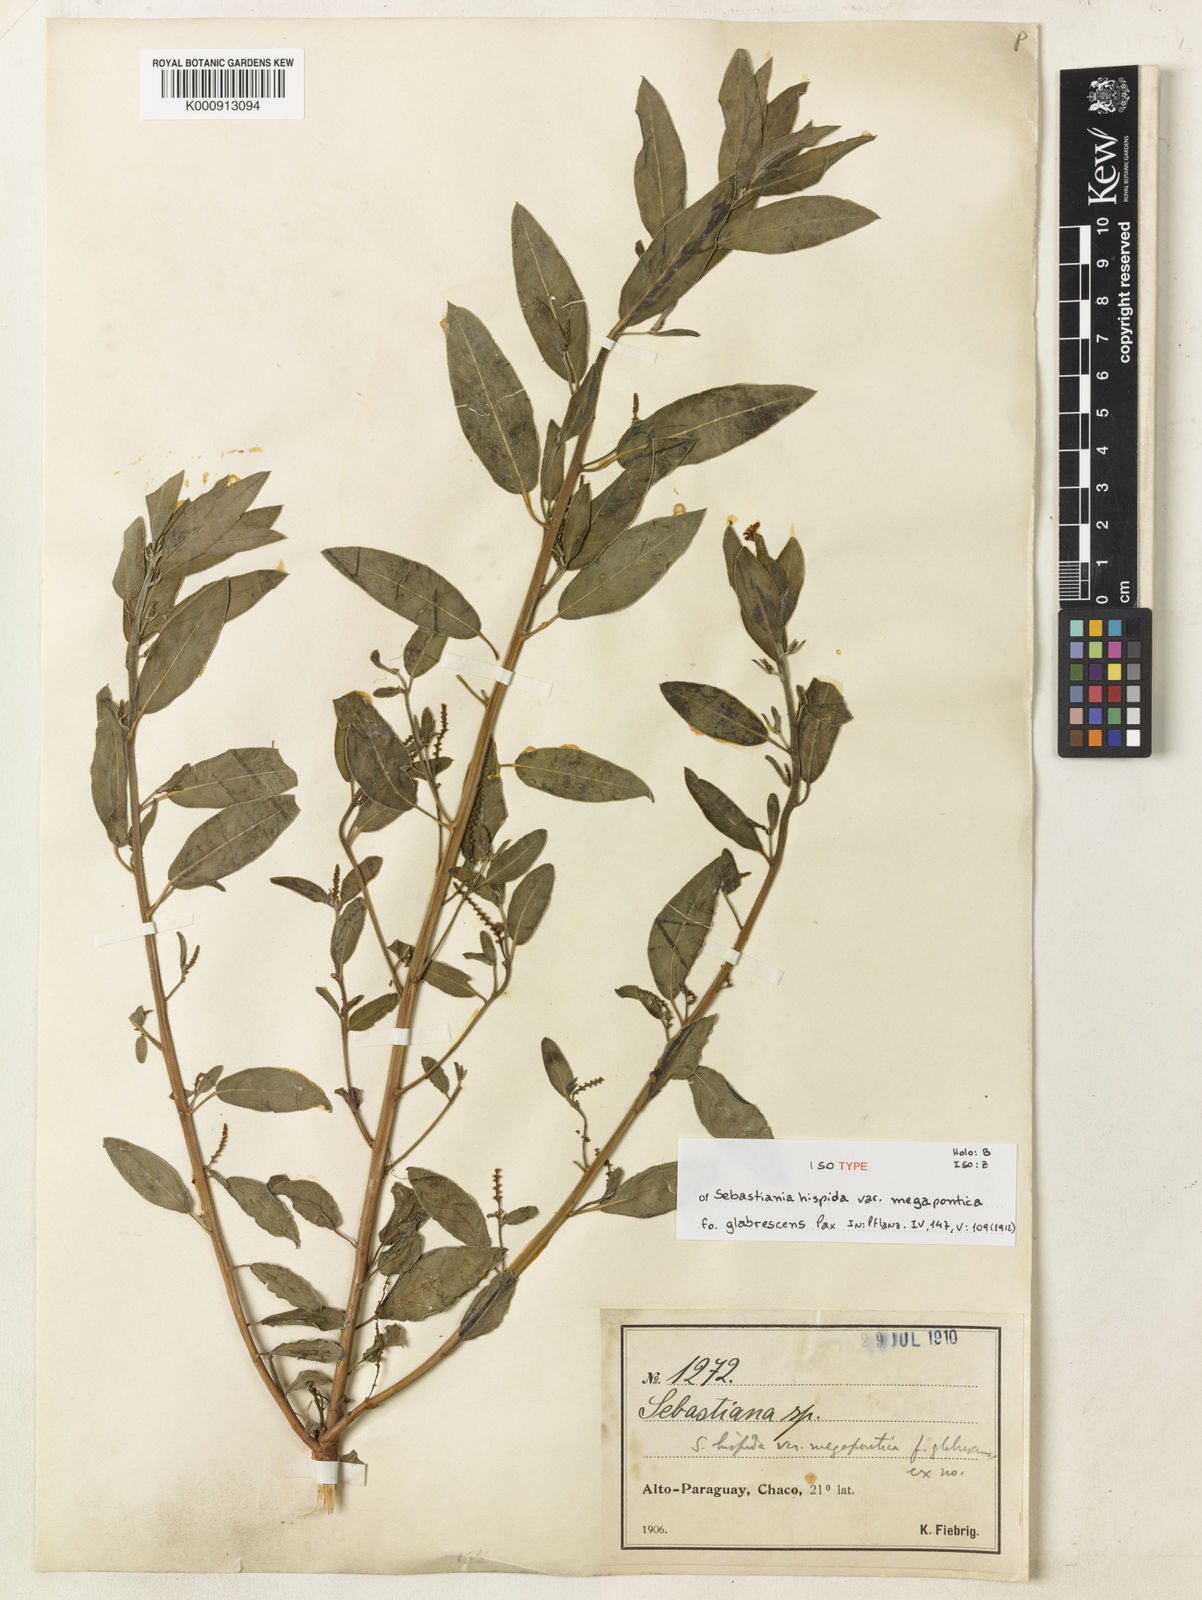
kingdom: Plantae
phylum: Tracheophyta
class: Magnoliopsida
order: Malpighiales
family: Euphorbiaceae
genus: Microstachys
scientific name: Microstachys hispida
